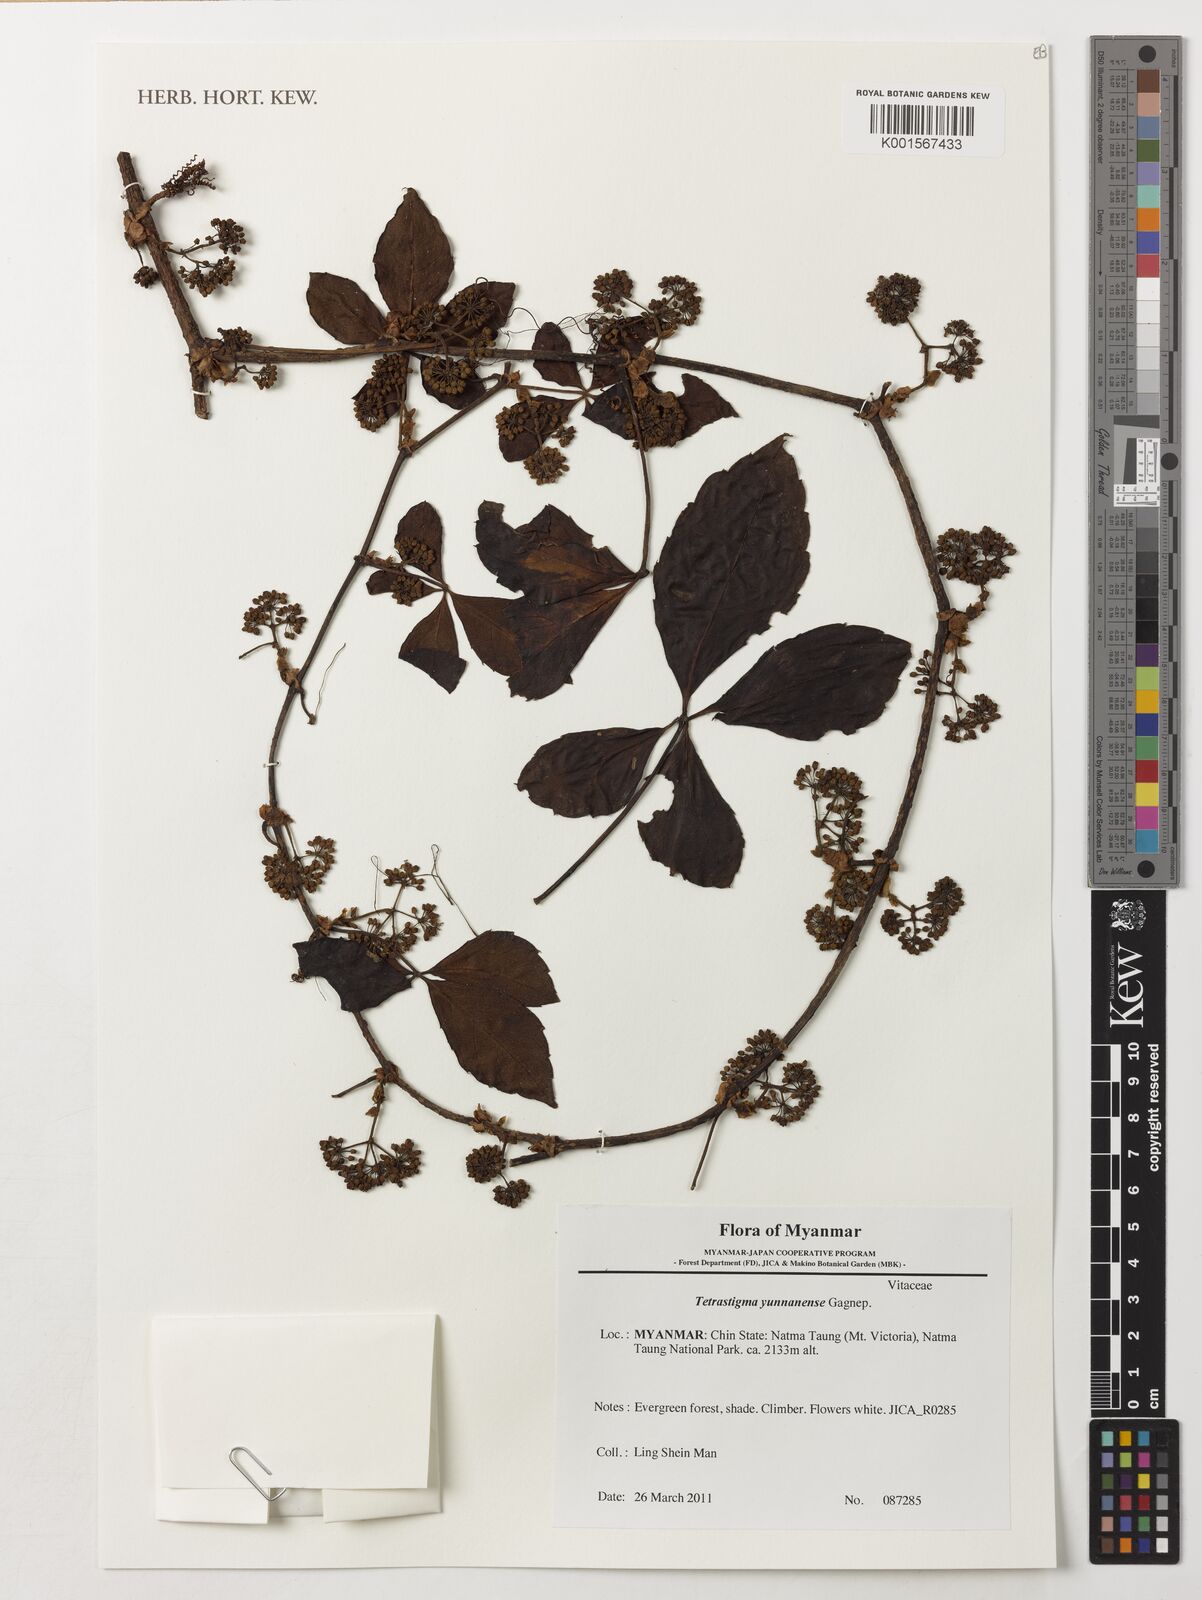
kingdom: Plantae
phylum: Tracheophyta
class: Magnoliopsida
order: Vitales
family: Vitaceae
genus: Tetrastigma
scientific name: Tetrastigma yunnanense
